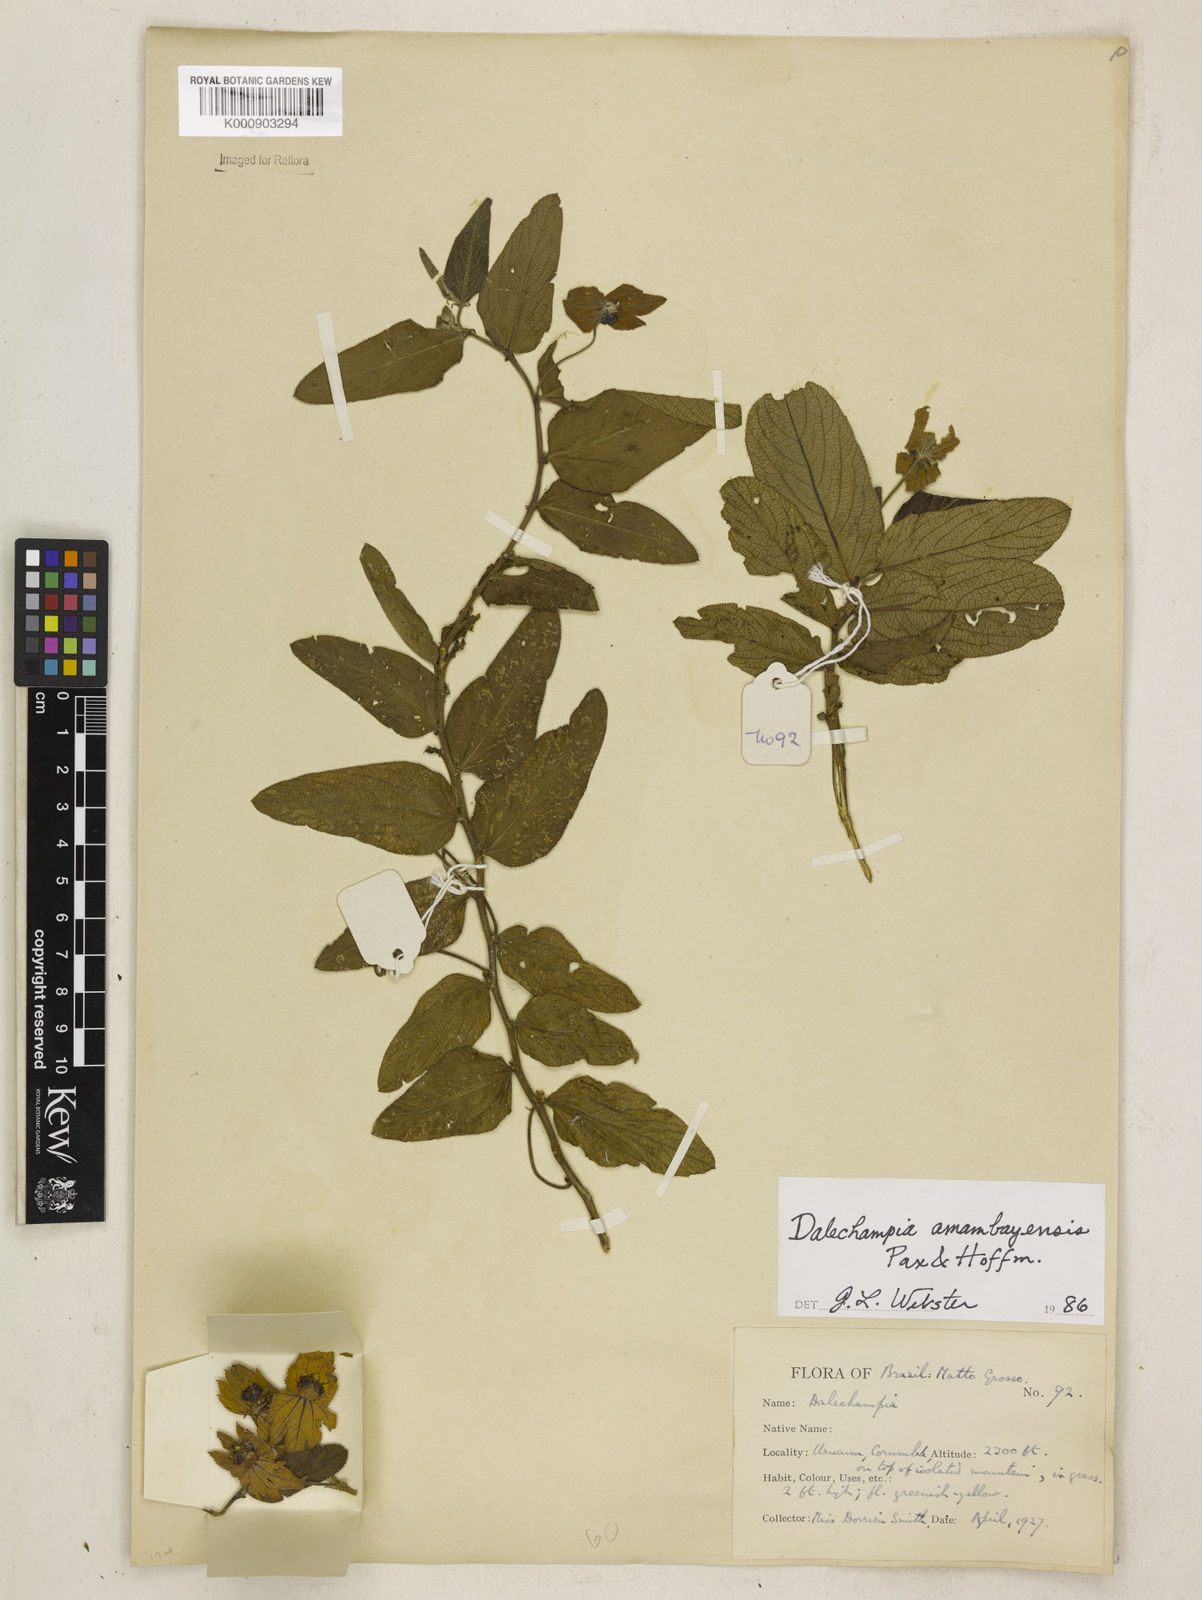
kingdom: Plantae
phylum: Tracheophyta
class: Magnoliopsida
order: Malpighiales
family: Euphorbiaceae
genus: Dalechampia
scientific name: Dalechampia weddelliana
